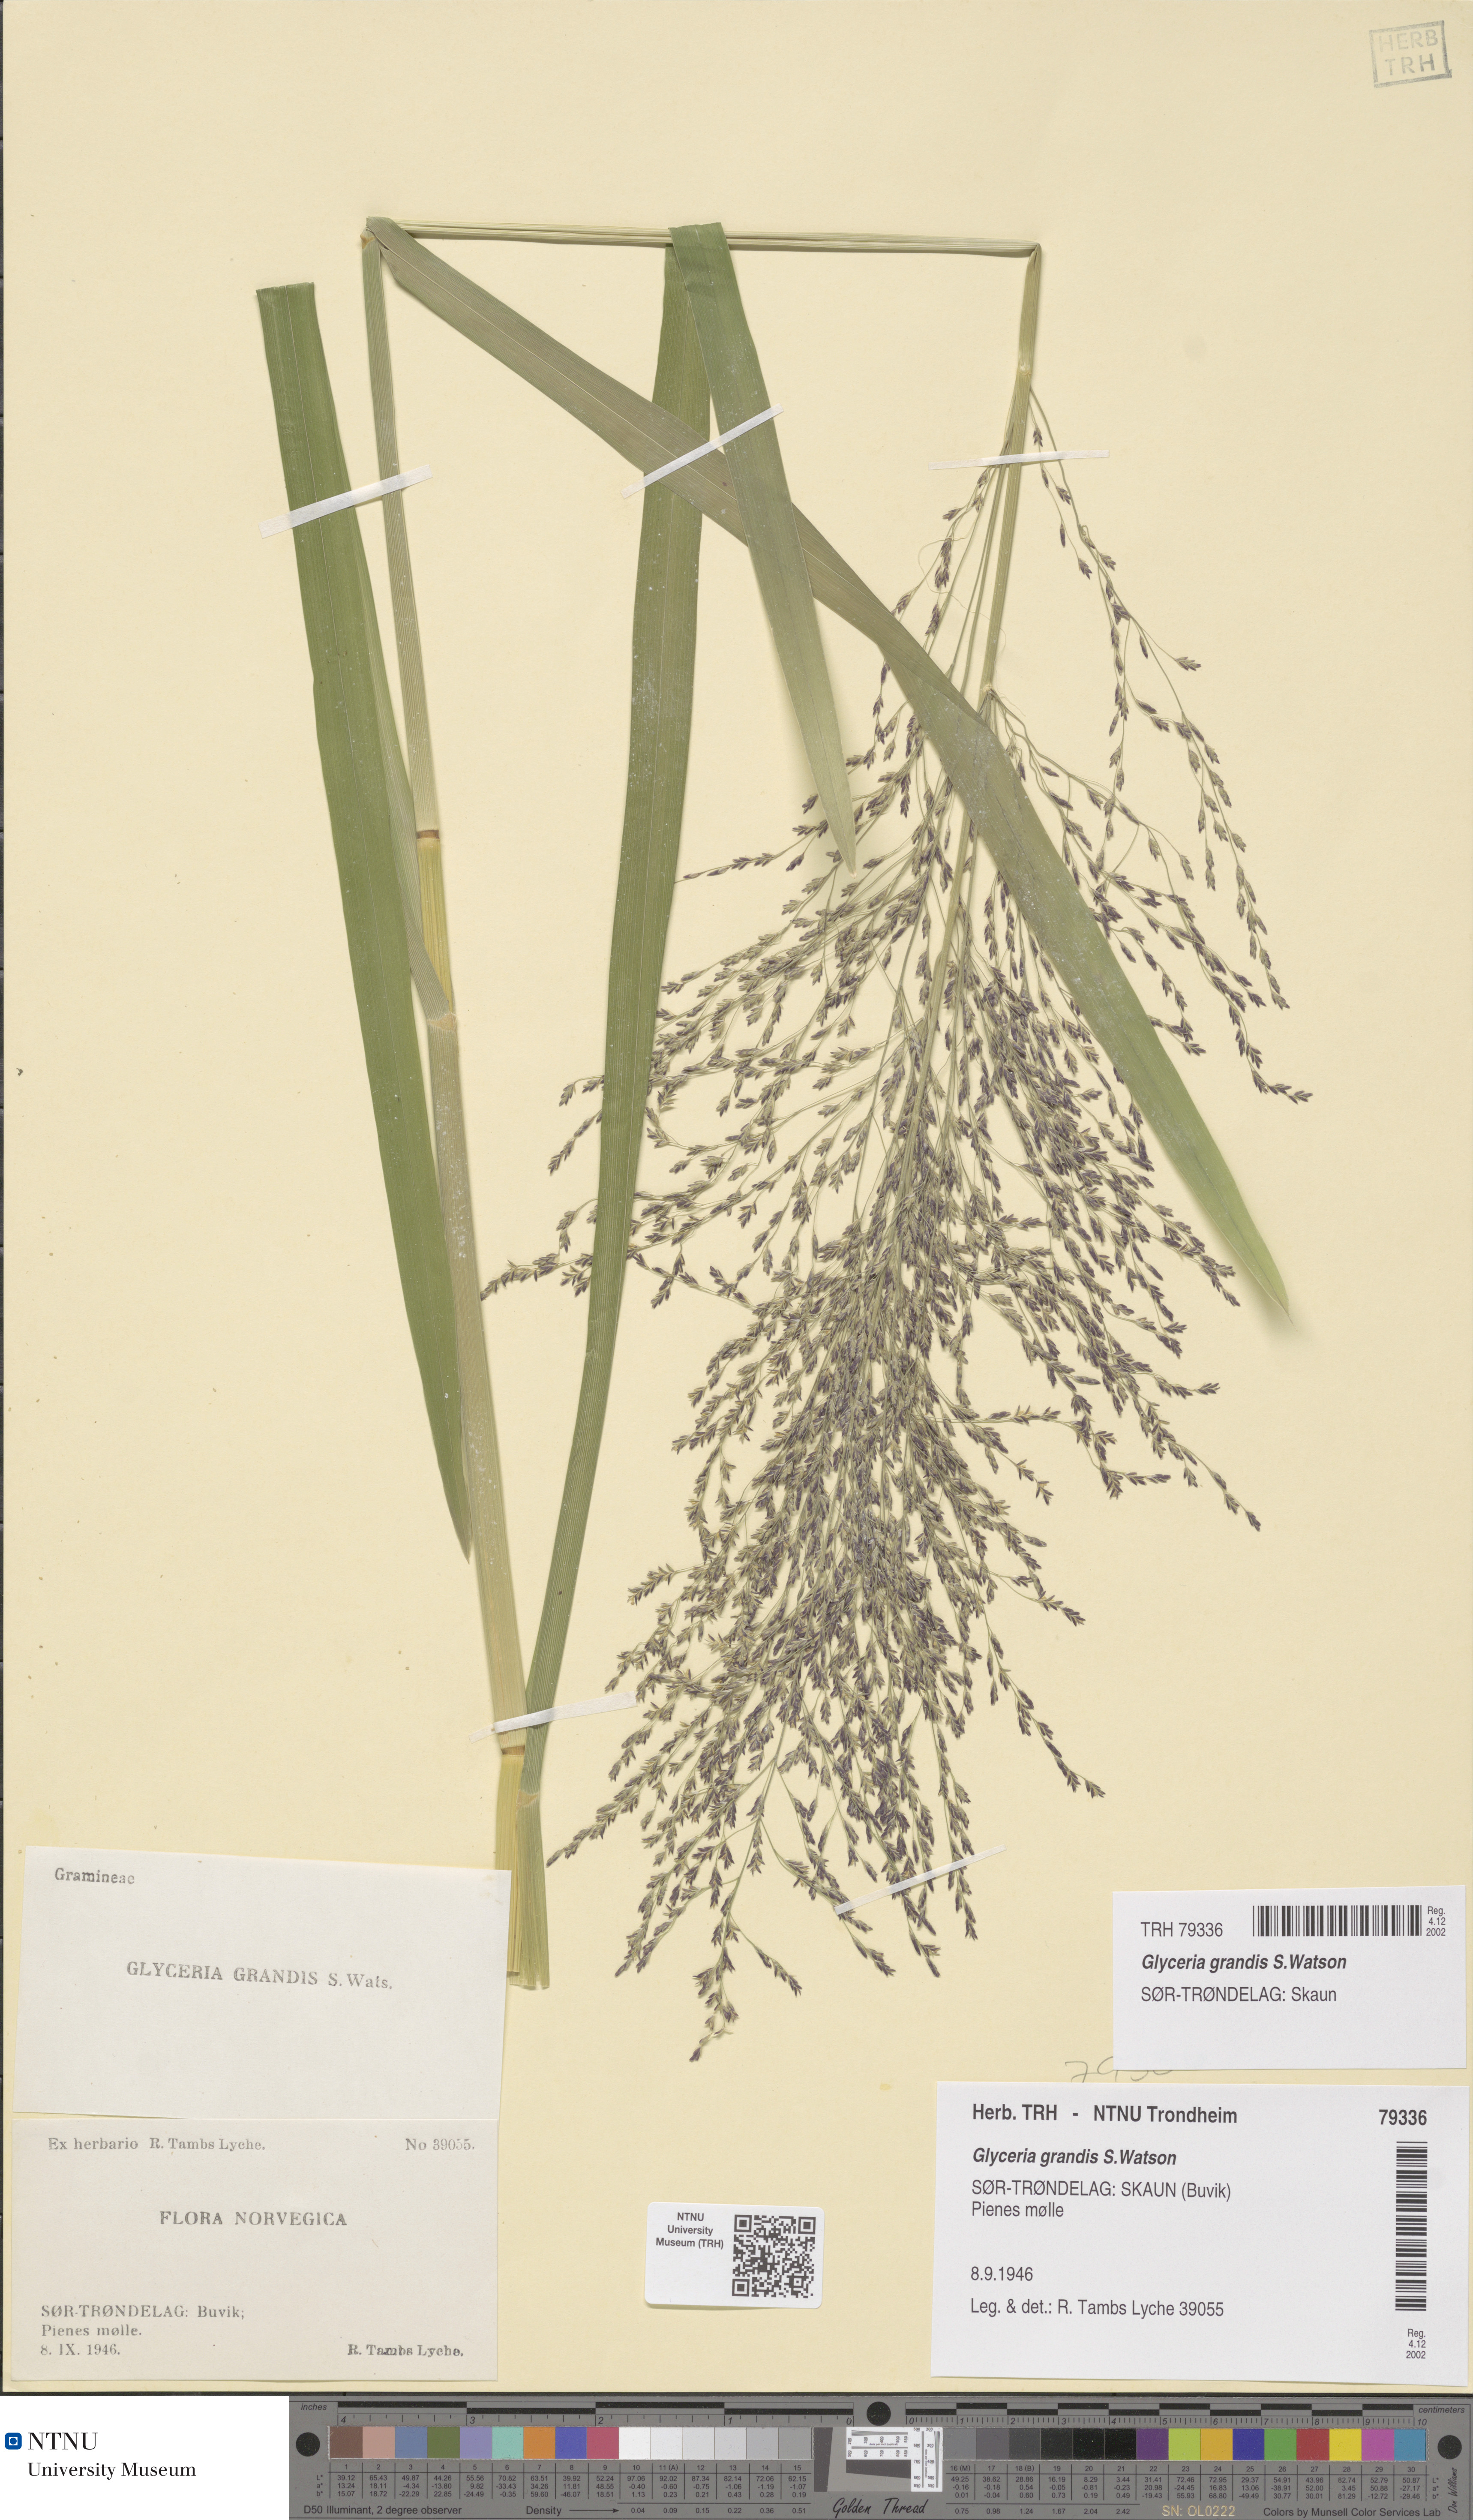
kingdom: Plantae
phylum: Tracheophyta
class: Liliopsida
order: Poales
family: Poaceae
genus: Glyceria
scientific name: Glyceria grandis
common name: American glyceria
